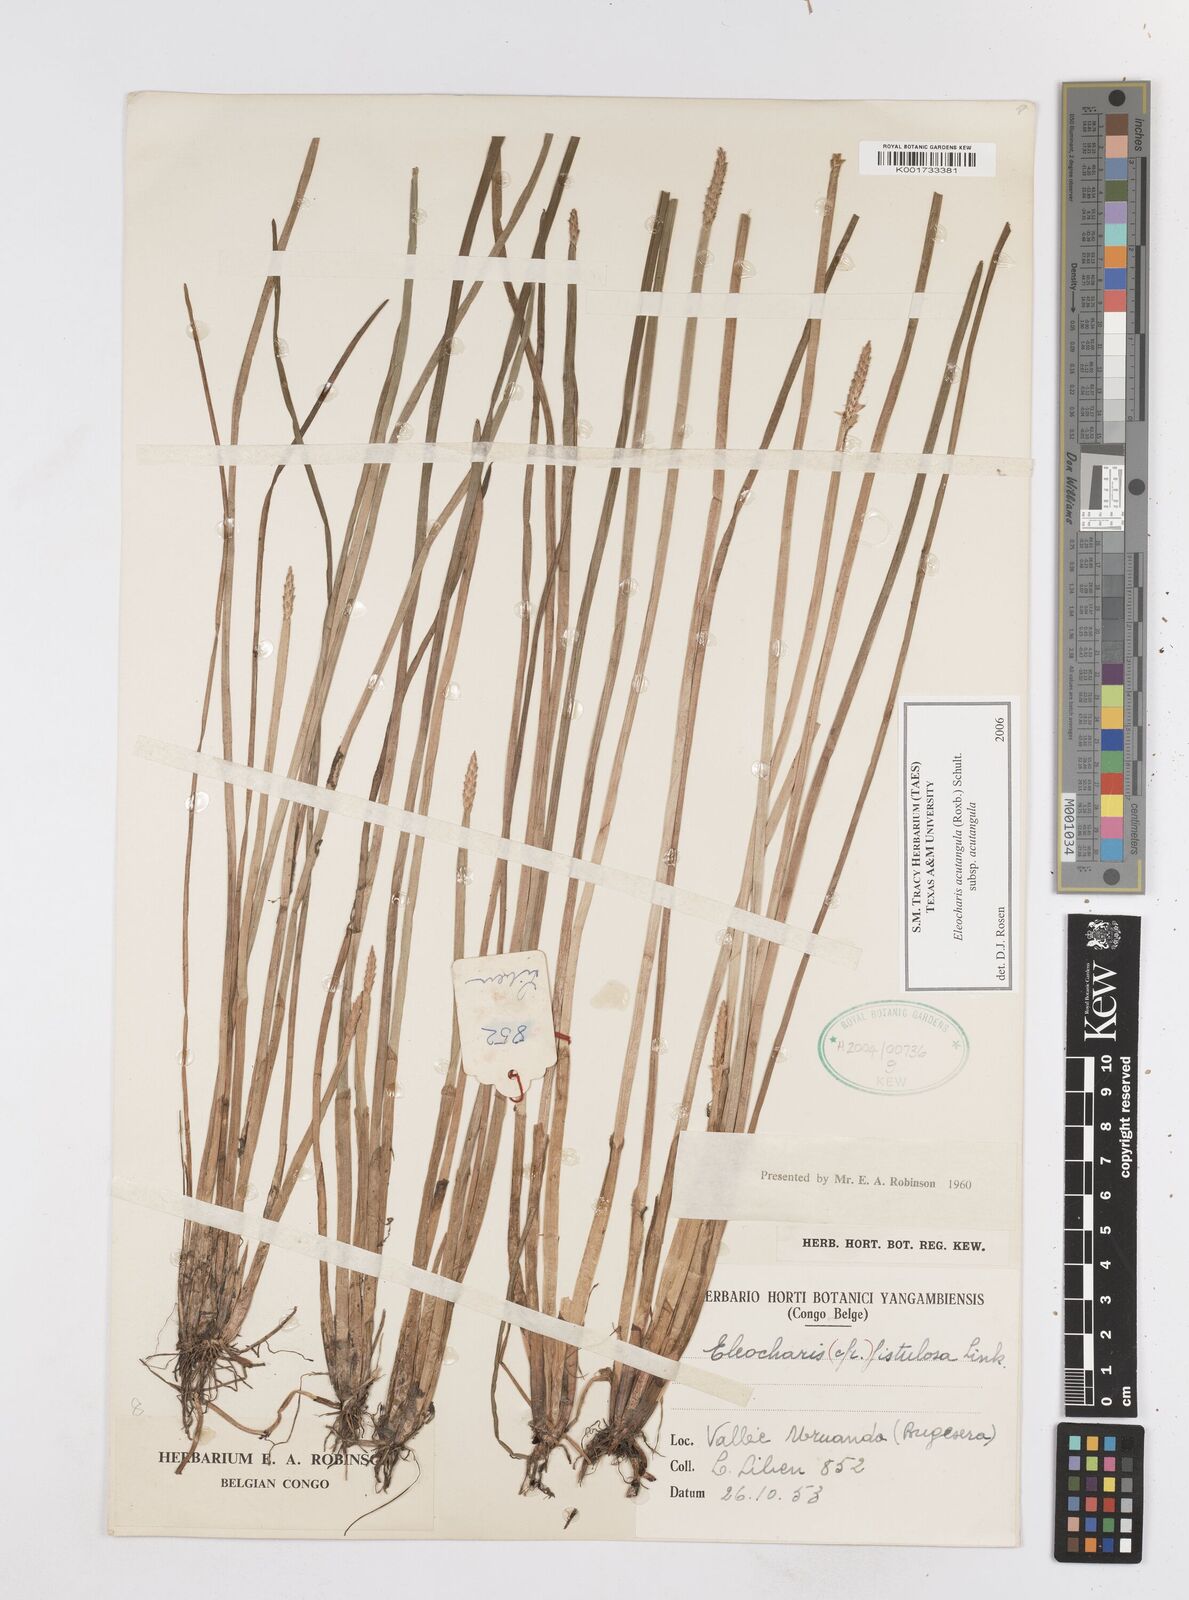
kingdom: Plantae
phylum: Tracheophyta
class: Liliopsida
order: Poales
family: Cyperaceae
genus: Eleocharis
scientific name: Eleocharis acutangula
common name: Acute spikerush
